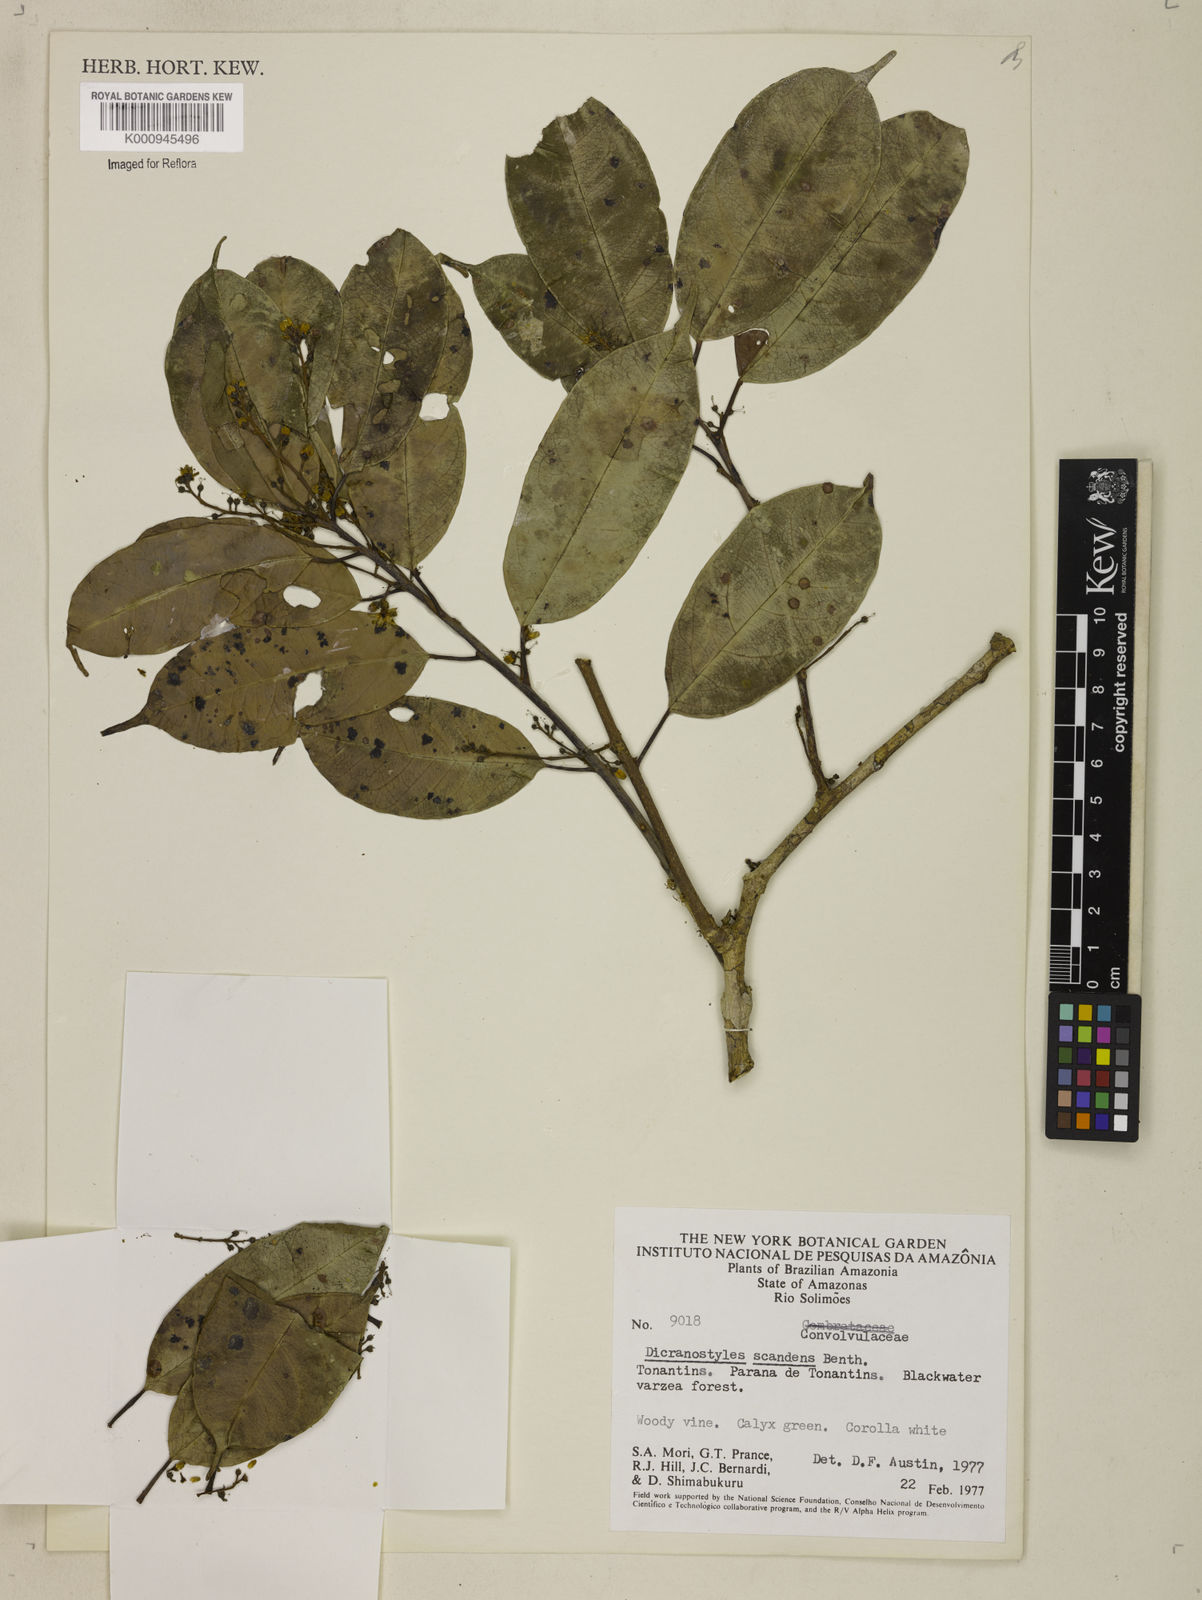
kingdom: Plantae
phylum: Tracheophyta
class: Magnoliopsida
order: Solanales
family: Convolvulaceae
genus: Dicranostyles
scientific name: Dicranostyles sericea
